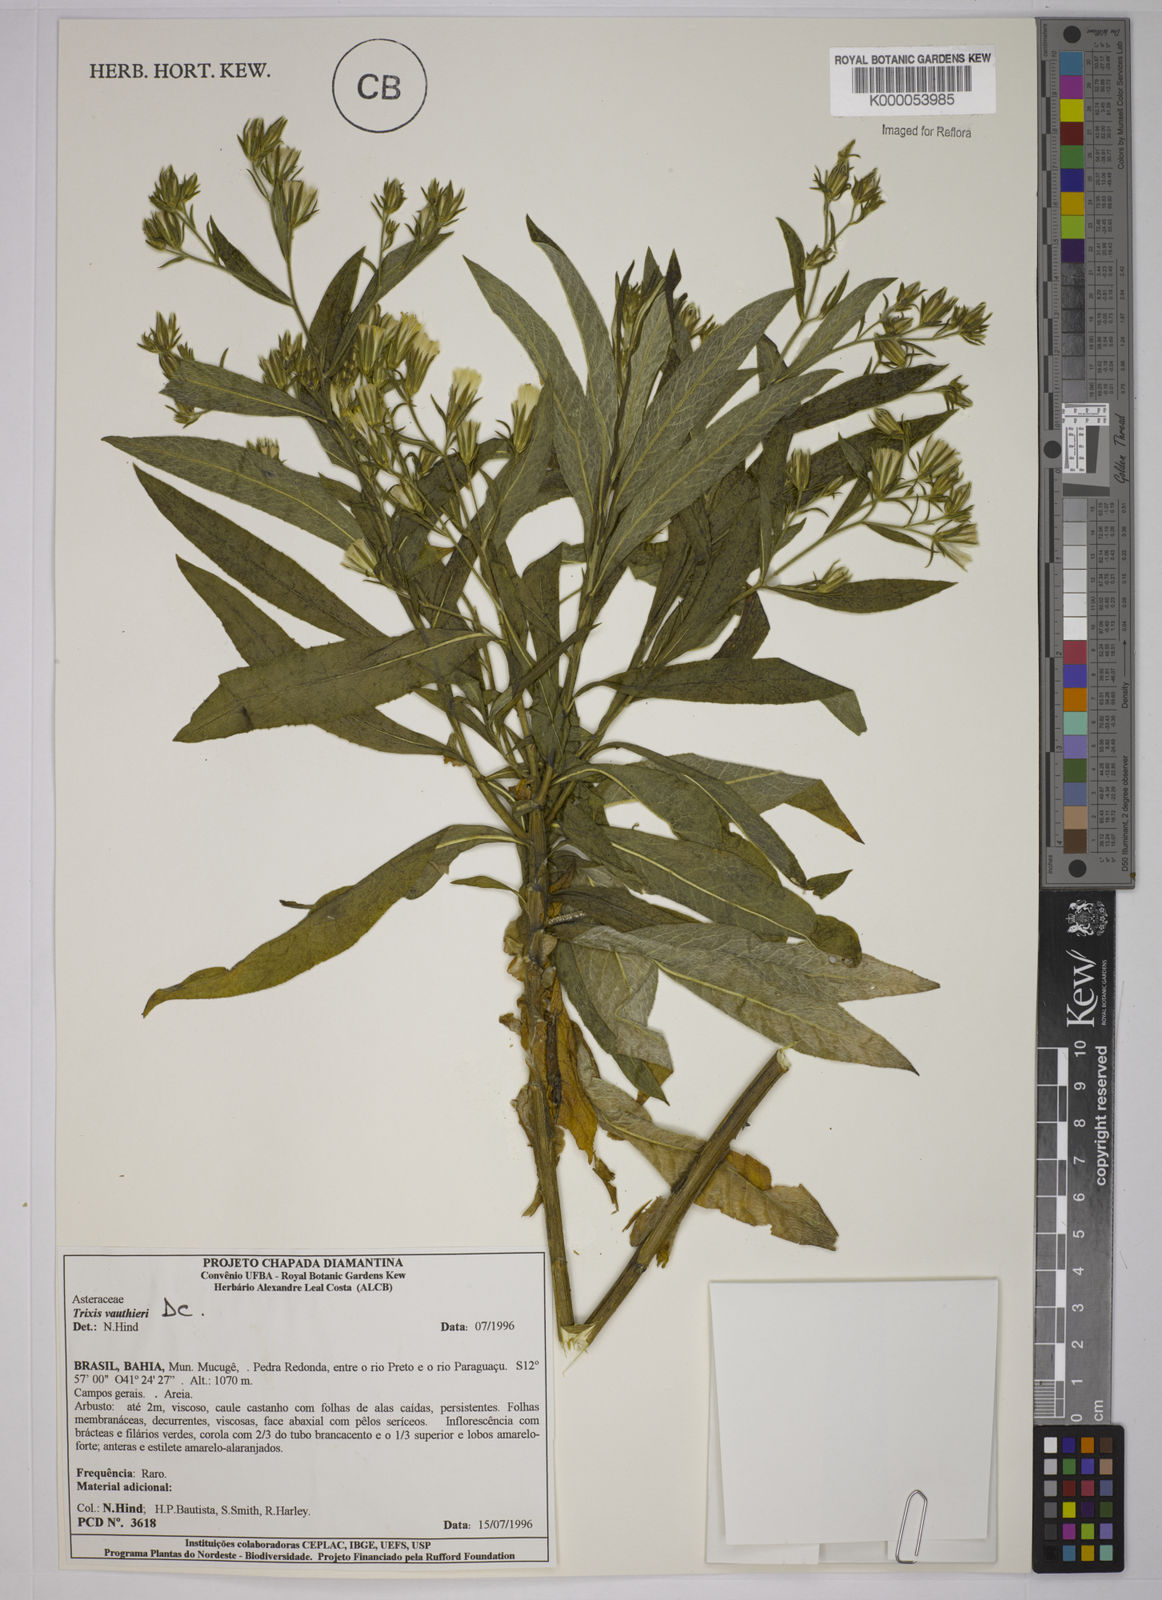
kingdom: Plantae
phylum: Tracheophyta
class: Magnoliopsida
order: Asterales
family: Asteraceae
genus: Trixis
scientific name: Trixis vauthieri
